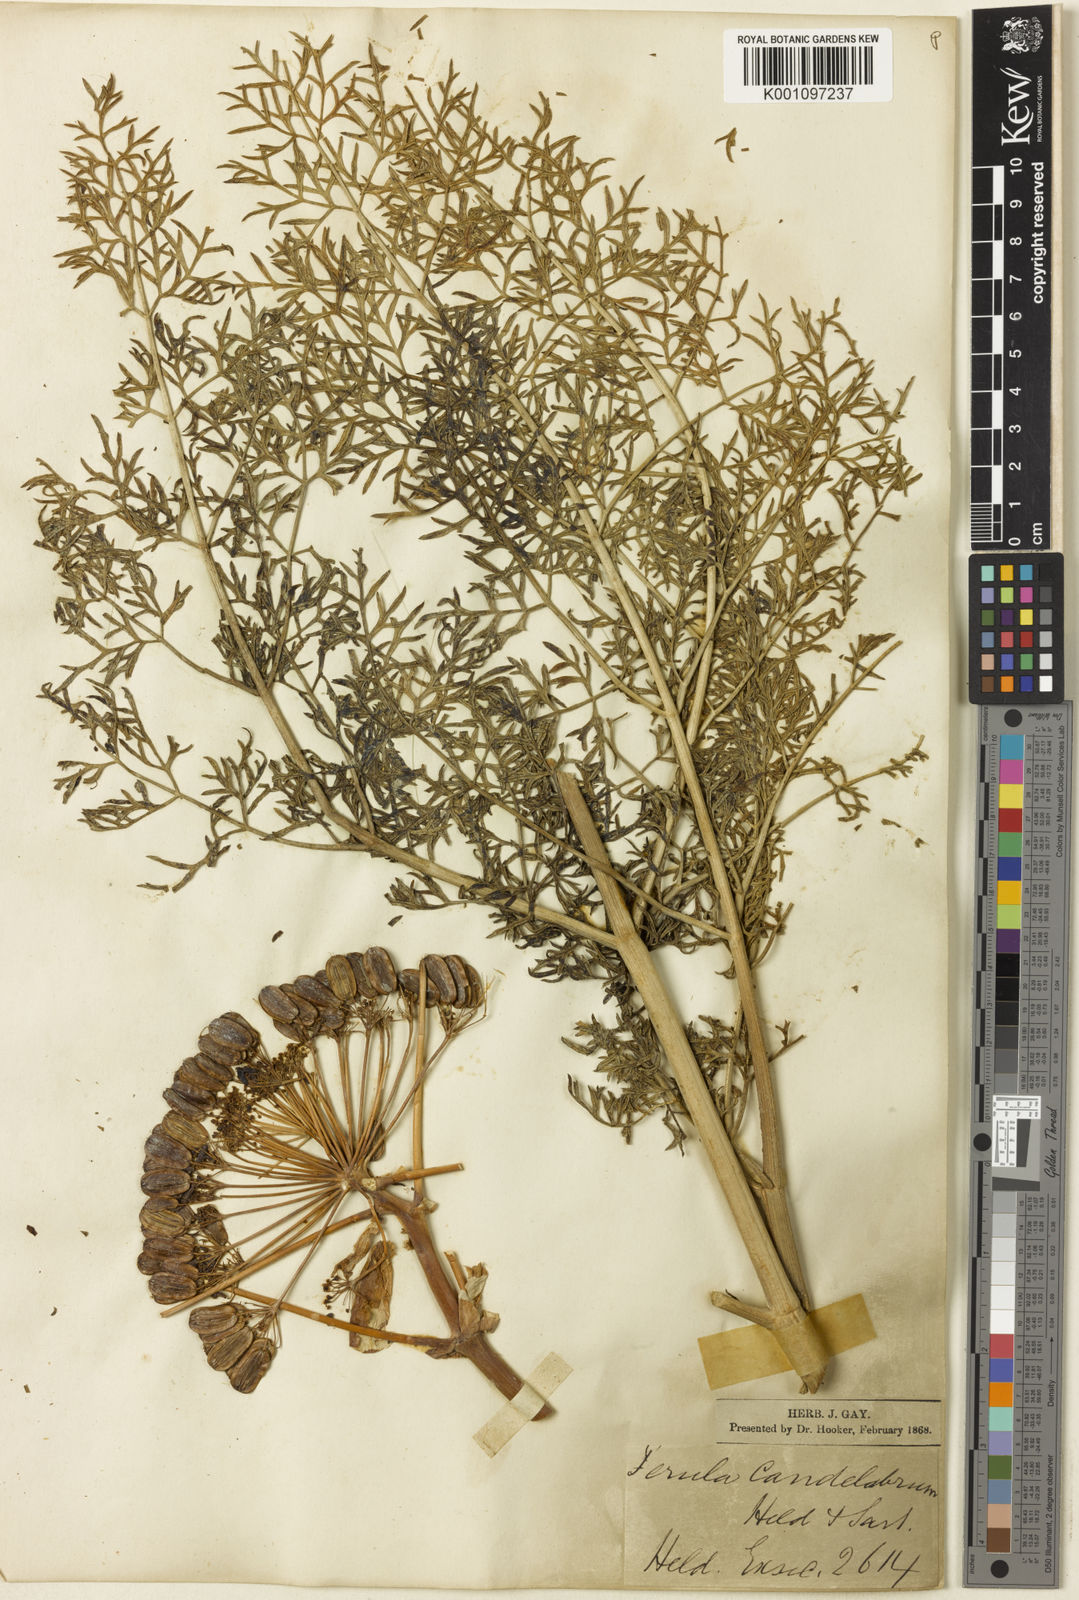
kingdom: Plantae
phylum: Tracheophyta
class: Magnoliopsida
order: Apiales
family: Apiaceae
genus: Ferula
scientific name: Ferula glauca
